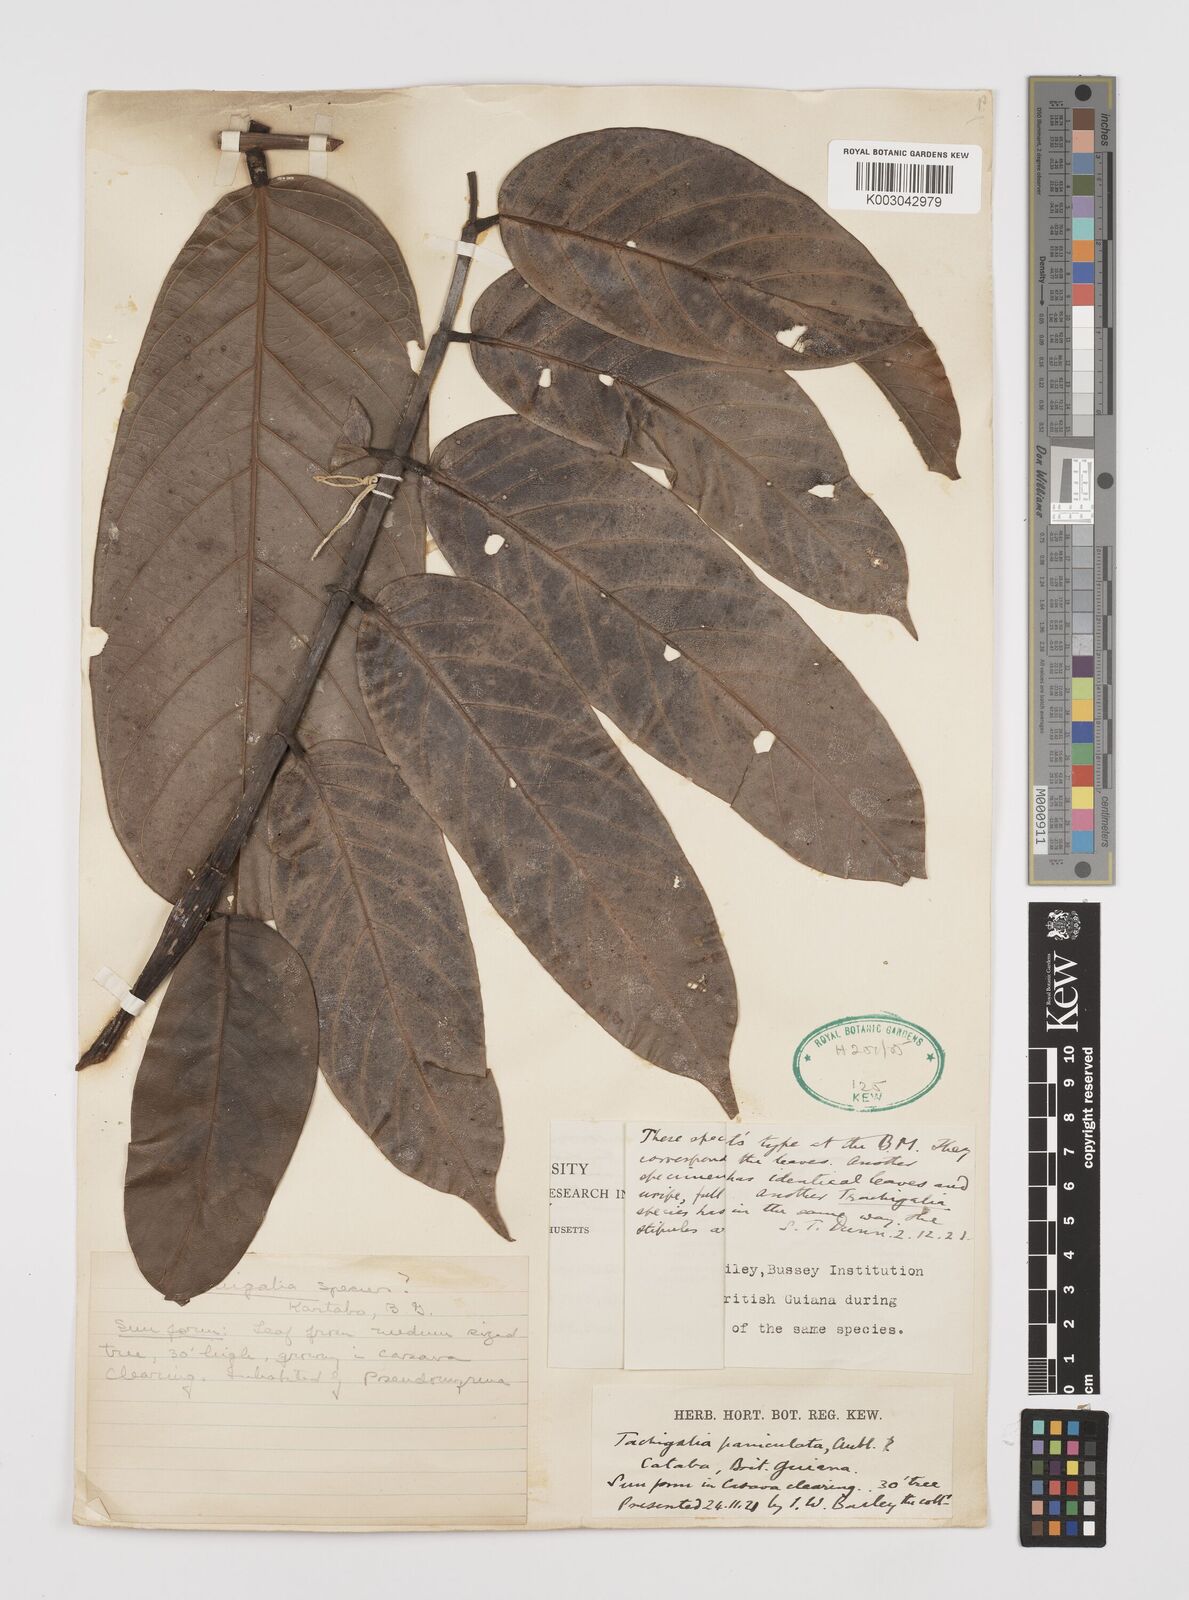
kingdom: Plantae
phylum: Tracheophyta
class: Magnoliopsida
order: Fabales
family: Fabaceae
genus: Tachigali
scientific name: Tachigali paniculata
